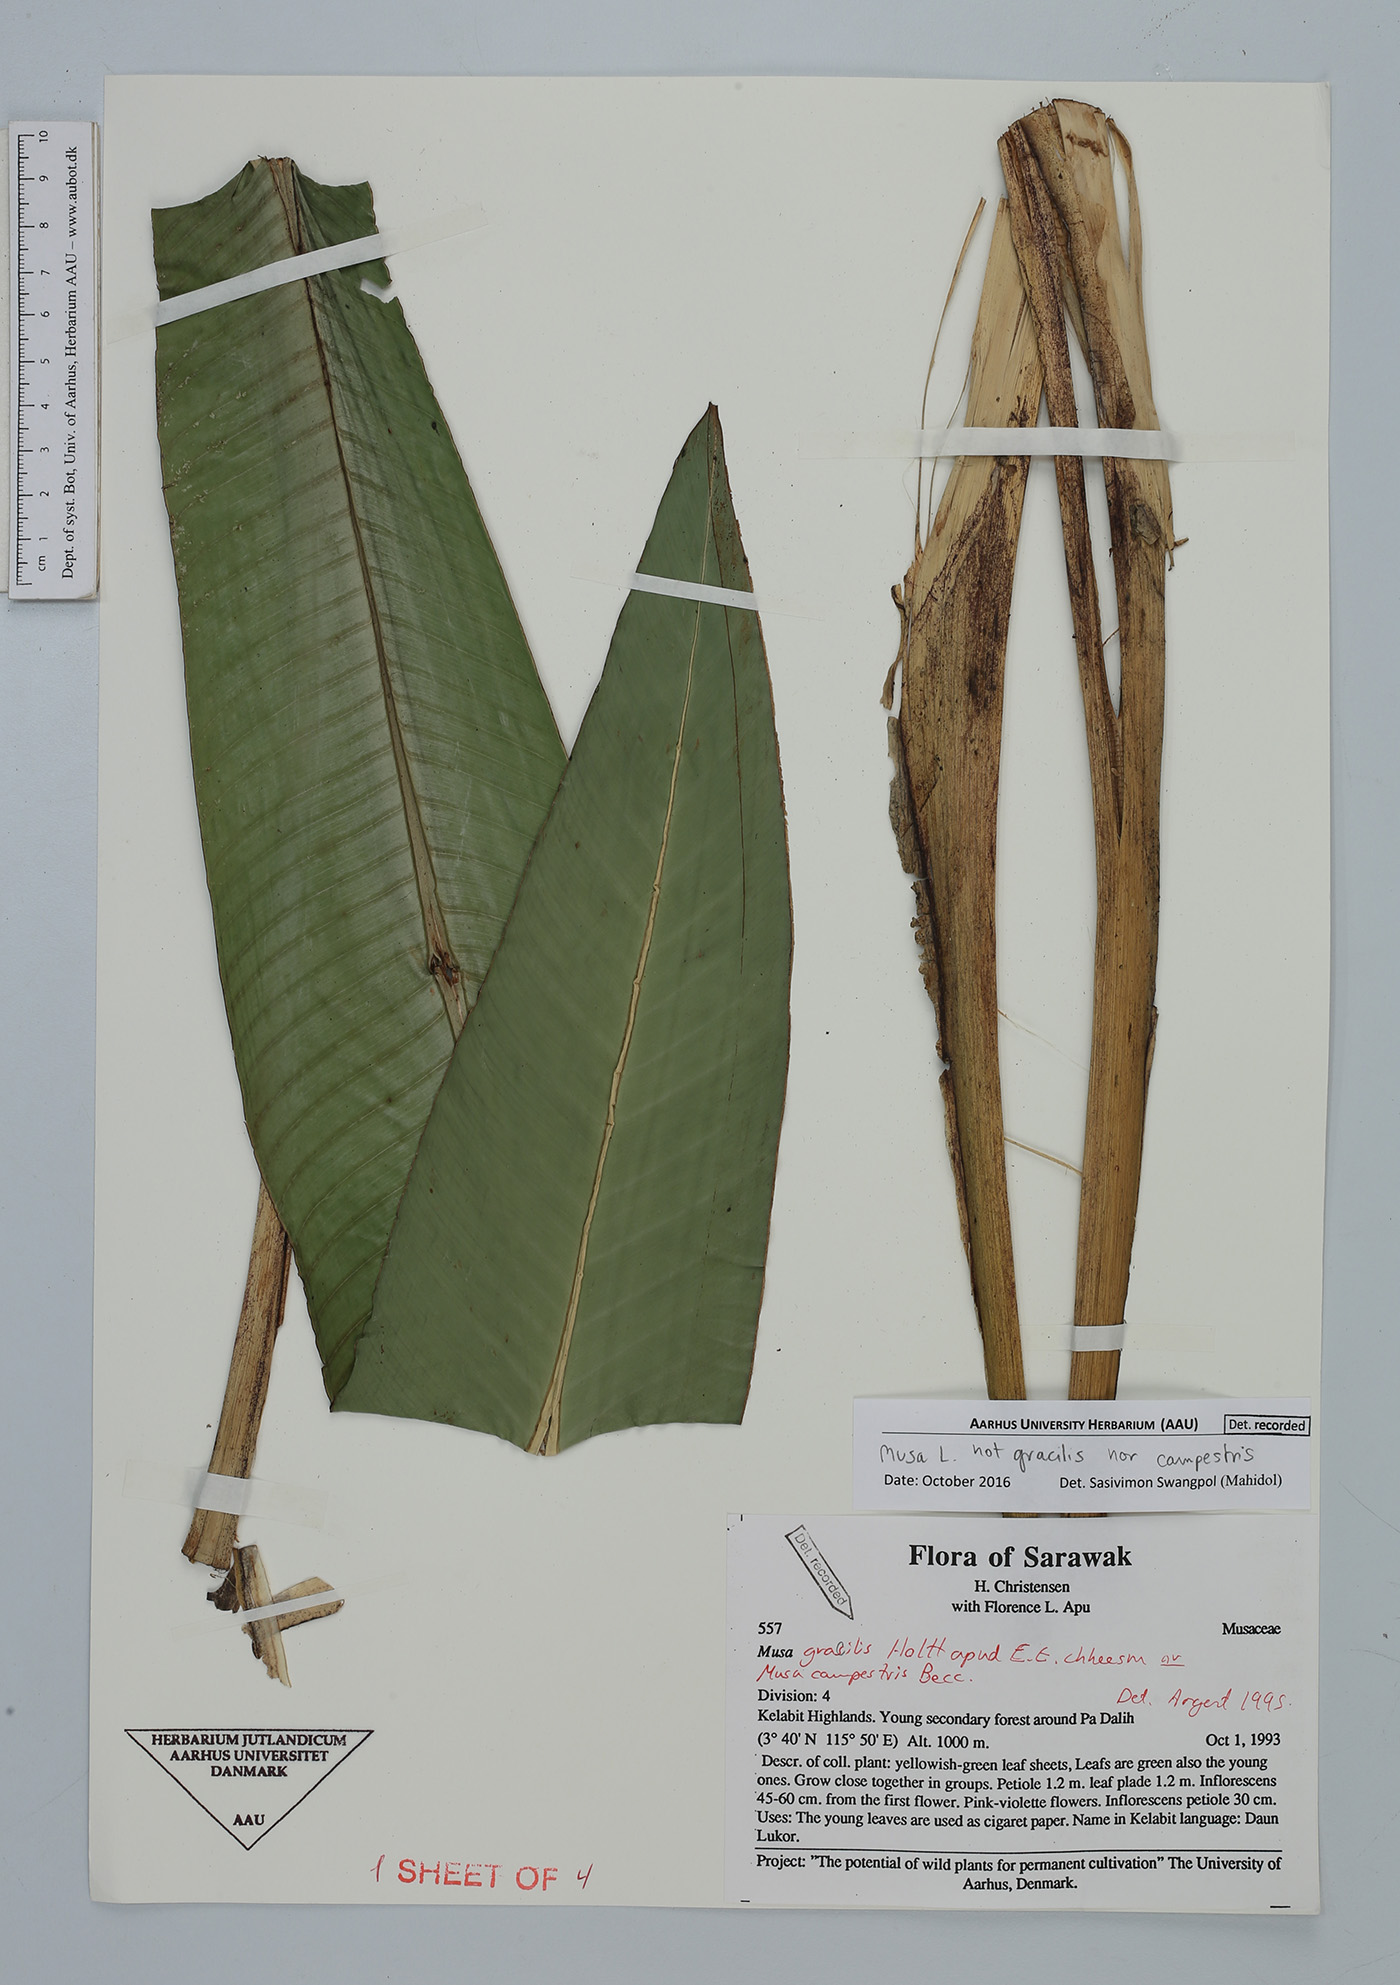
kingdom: Plantae
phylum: Tracheophyta
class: Liliopsida
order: Zingiberales
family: Musaceae
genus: Musa
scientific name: Musa
